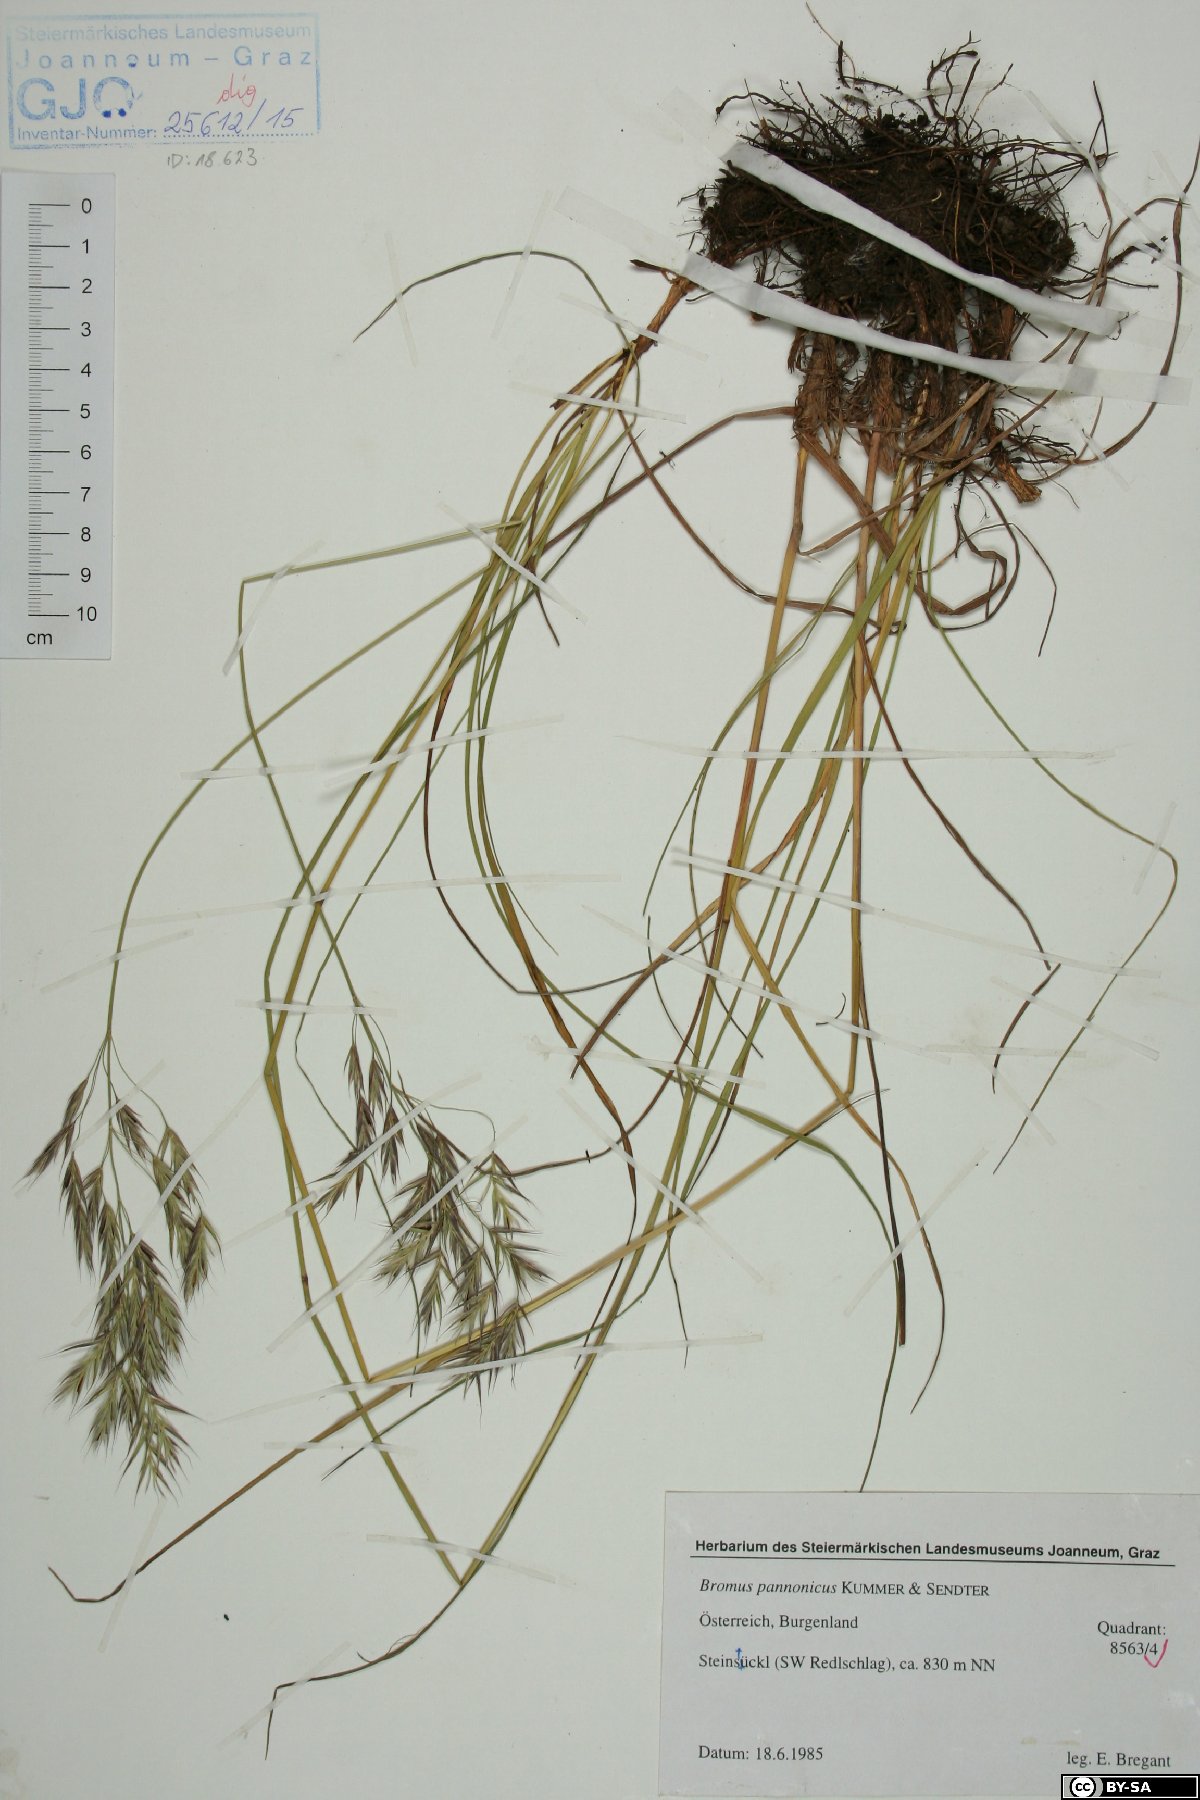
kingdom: Plantae
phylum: Tracheophyta
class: Liliopsida
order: Poales
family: Poaceae
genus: Bromus
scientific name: Bromus pannonicus
